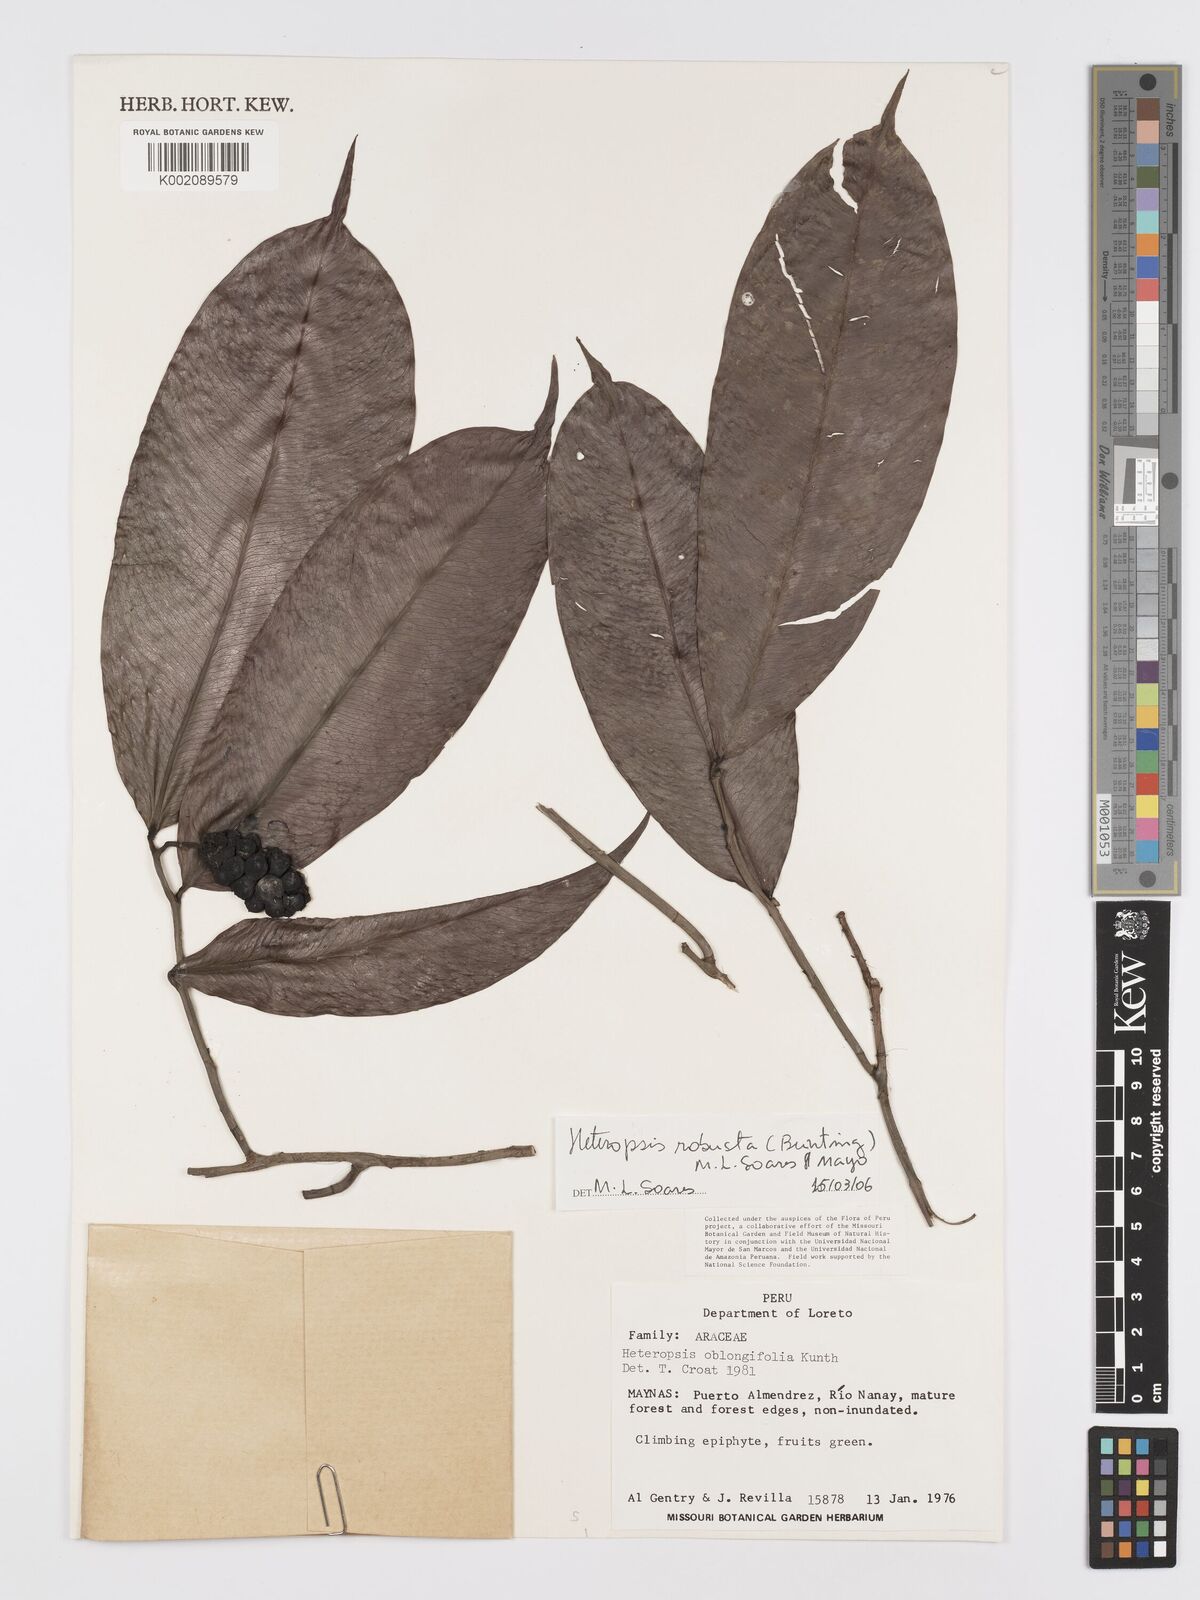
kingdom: Plantae
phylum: Tracheophyta
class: Liliopsida
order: Alismatales
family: Araceae
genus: Heteropsis
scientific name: Heteropsis robusta
